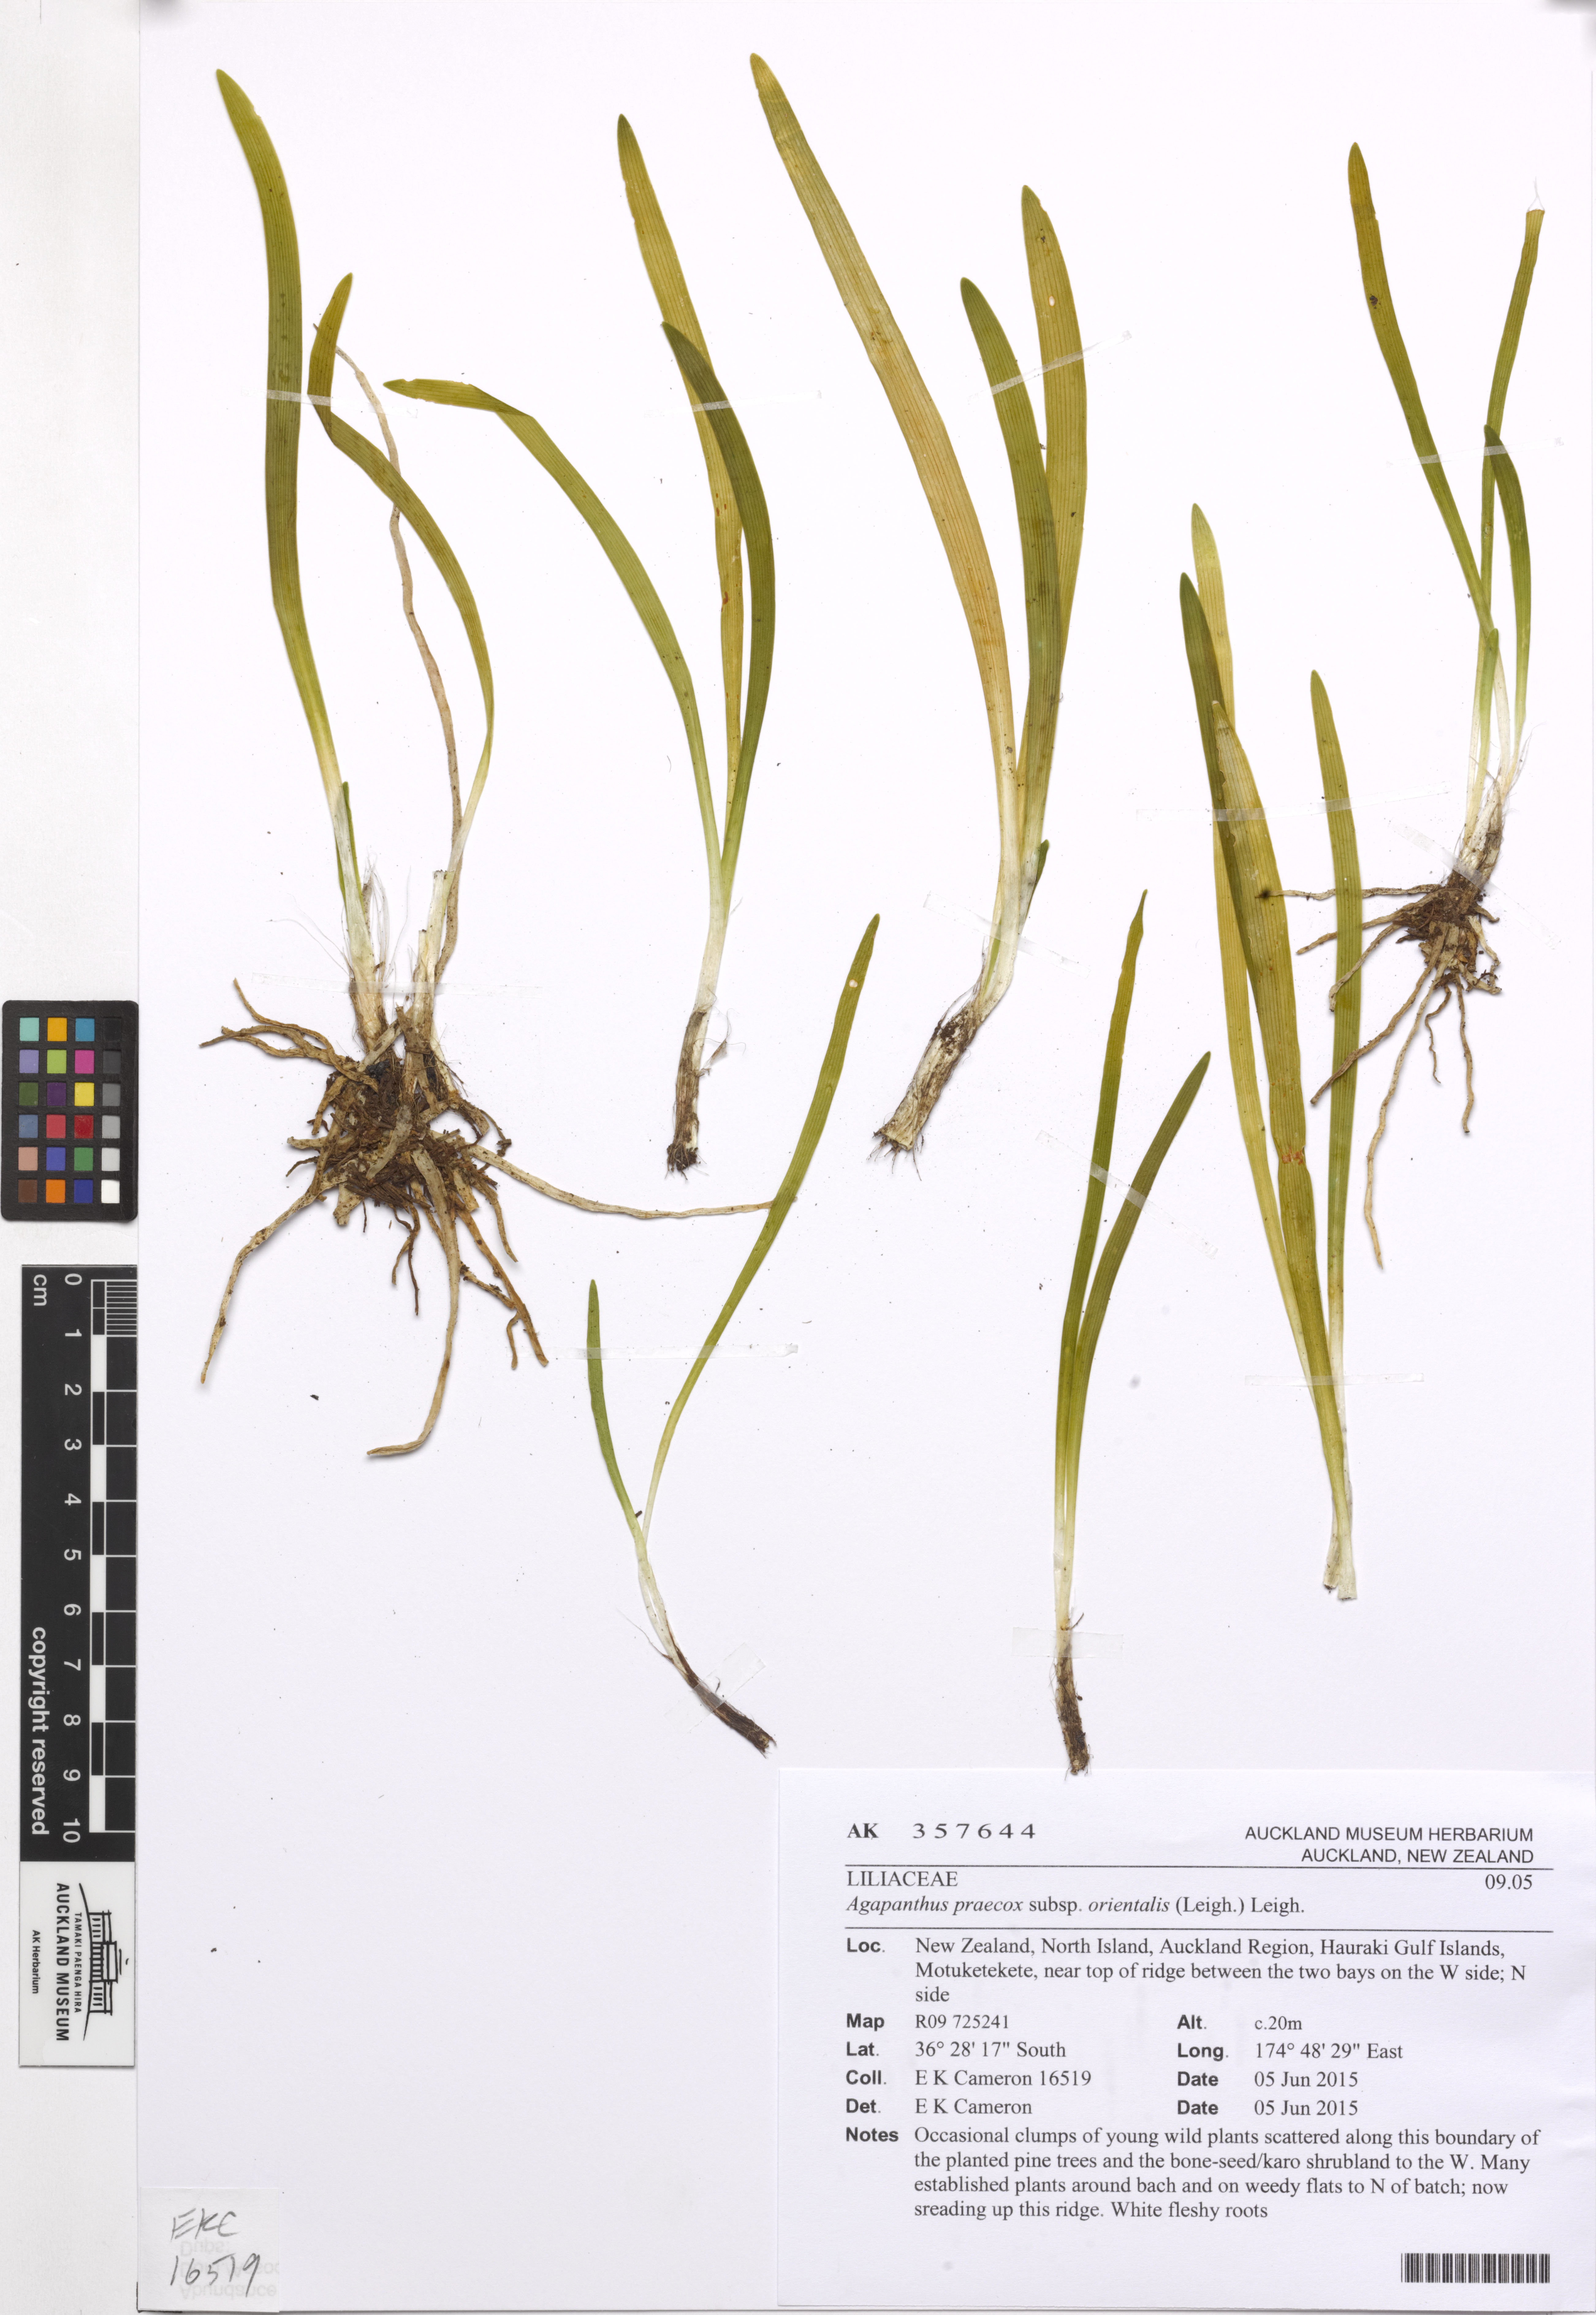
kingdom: Plantae
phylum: Tracheophyta
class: Liliopsida
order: Asparagales
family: Amaryllidaceae
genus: Agapanthus
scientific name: Agapanthus praecox
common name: African-lily
